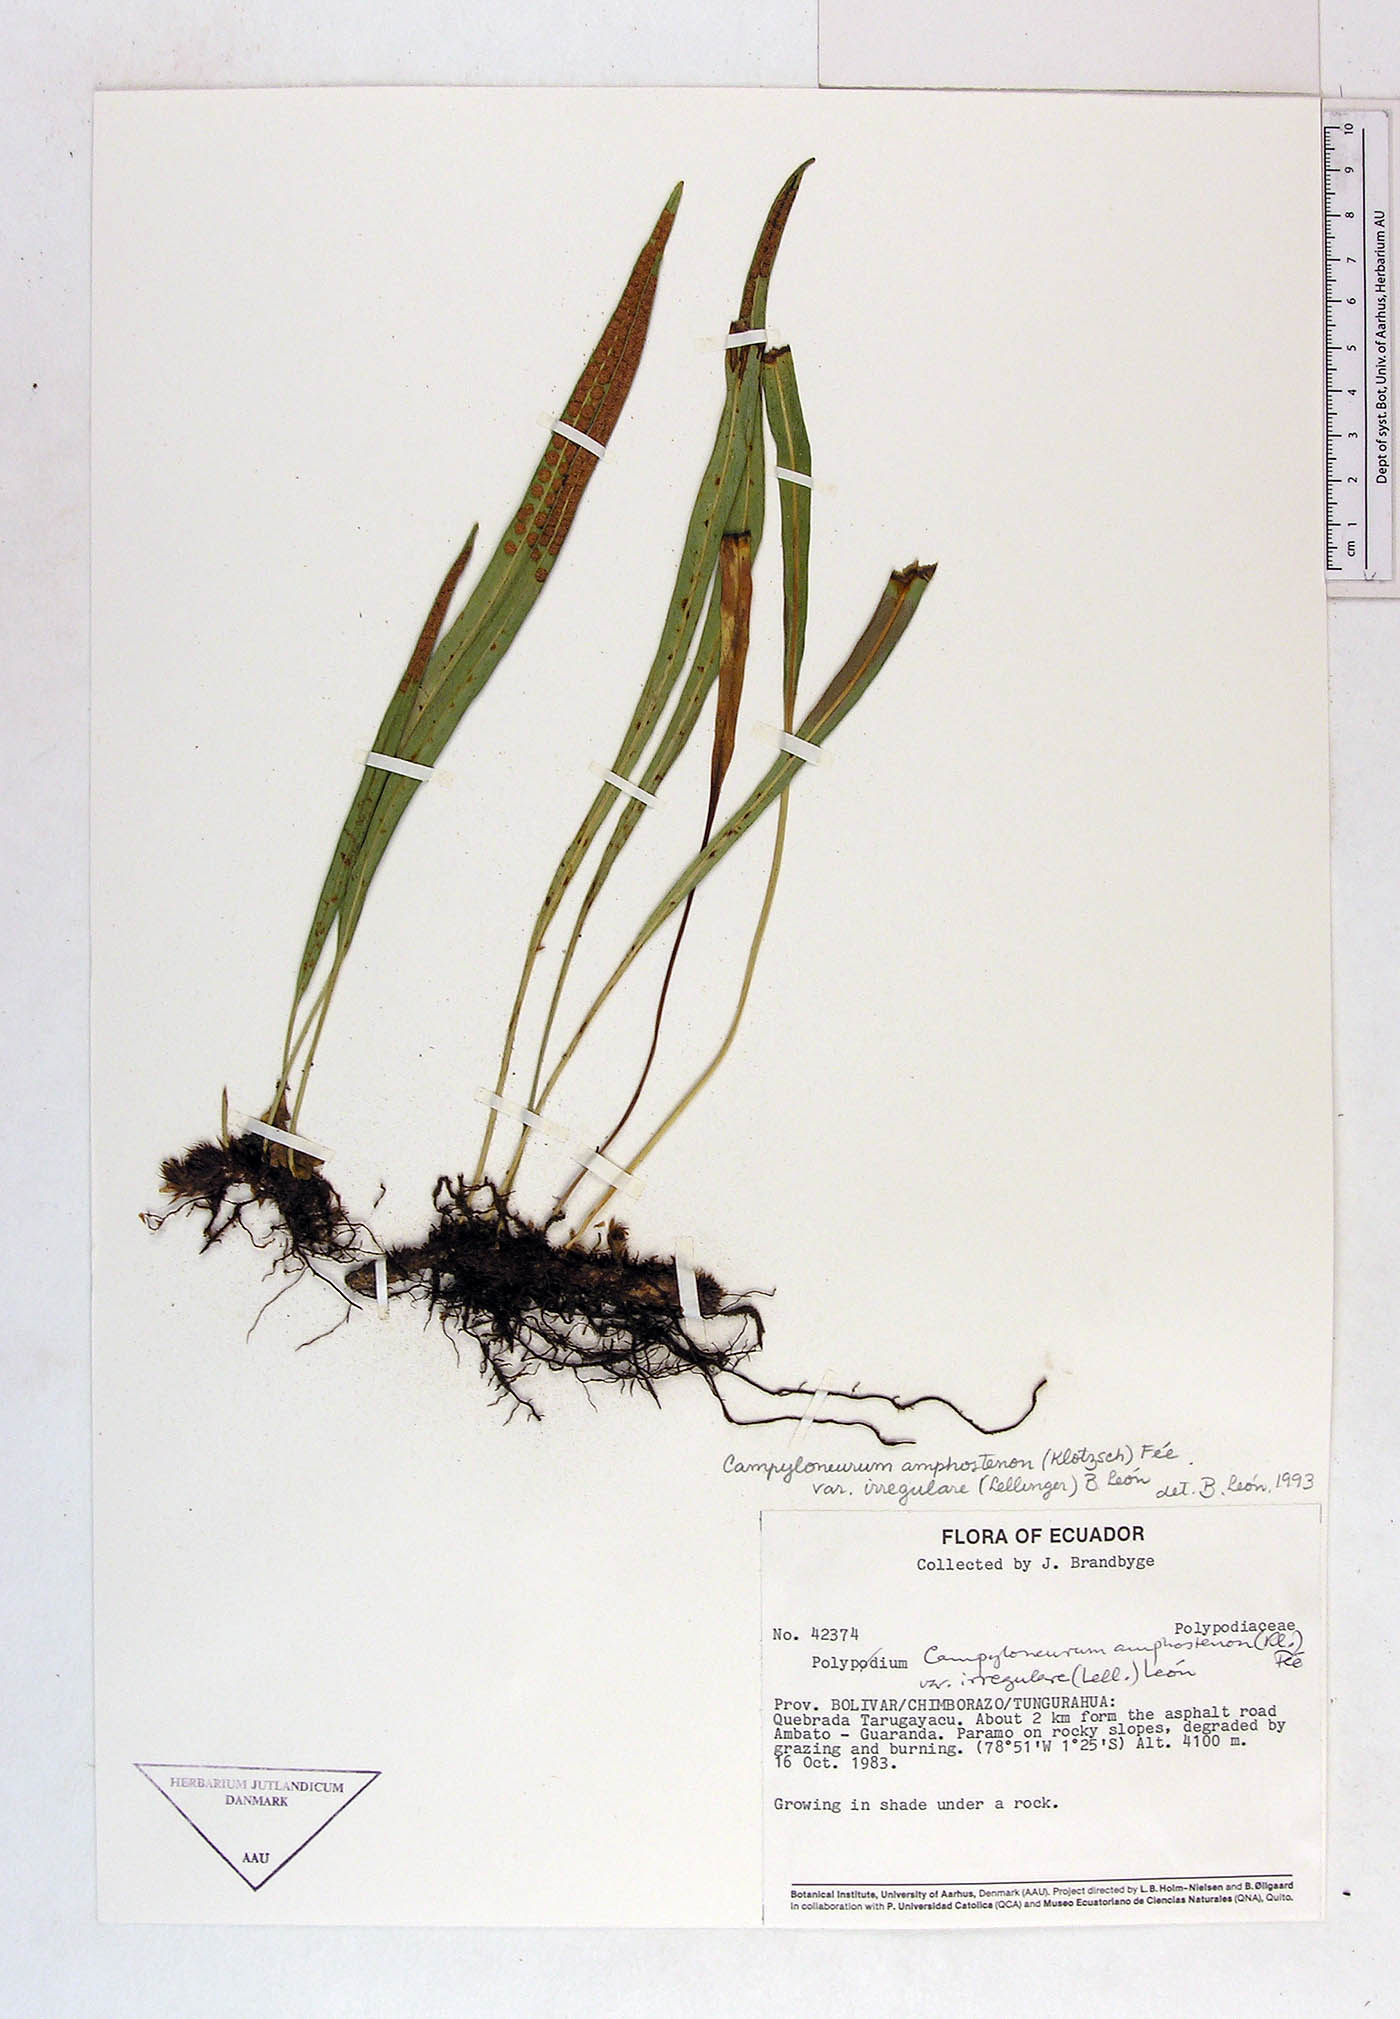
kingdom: Plantae
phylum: Tracheophyta
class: Polypodiopsida
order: Polypodiales
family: Polypodiaceae
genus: Polypodium
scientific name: Polypodium
